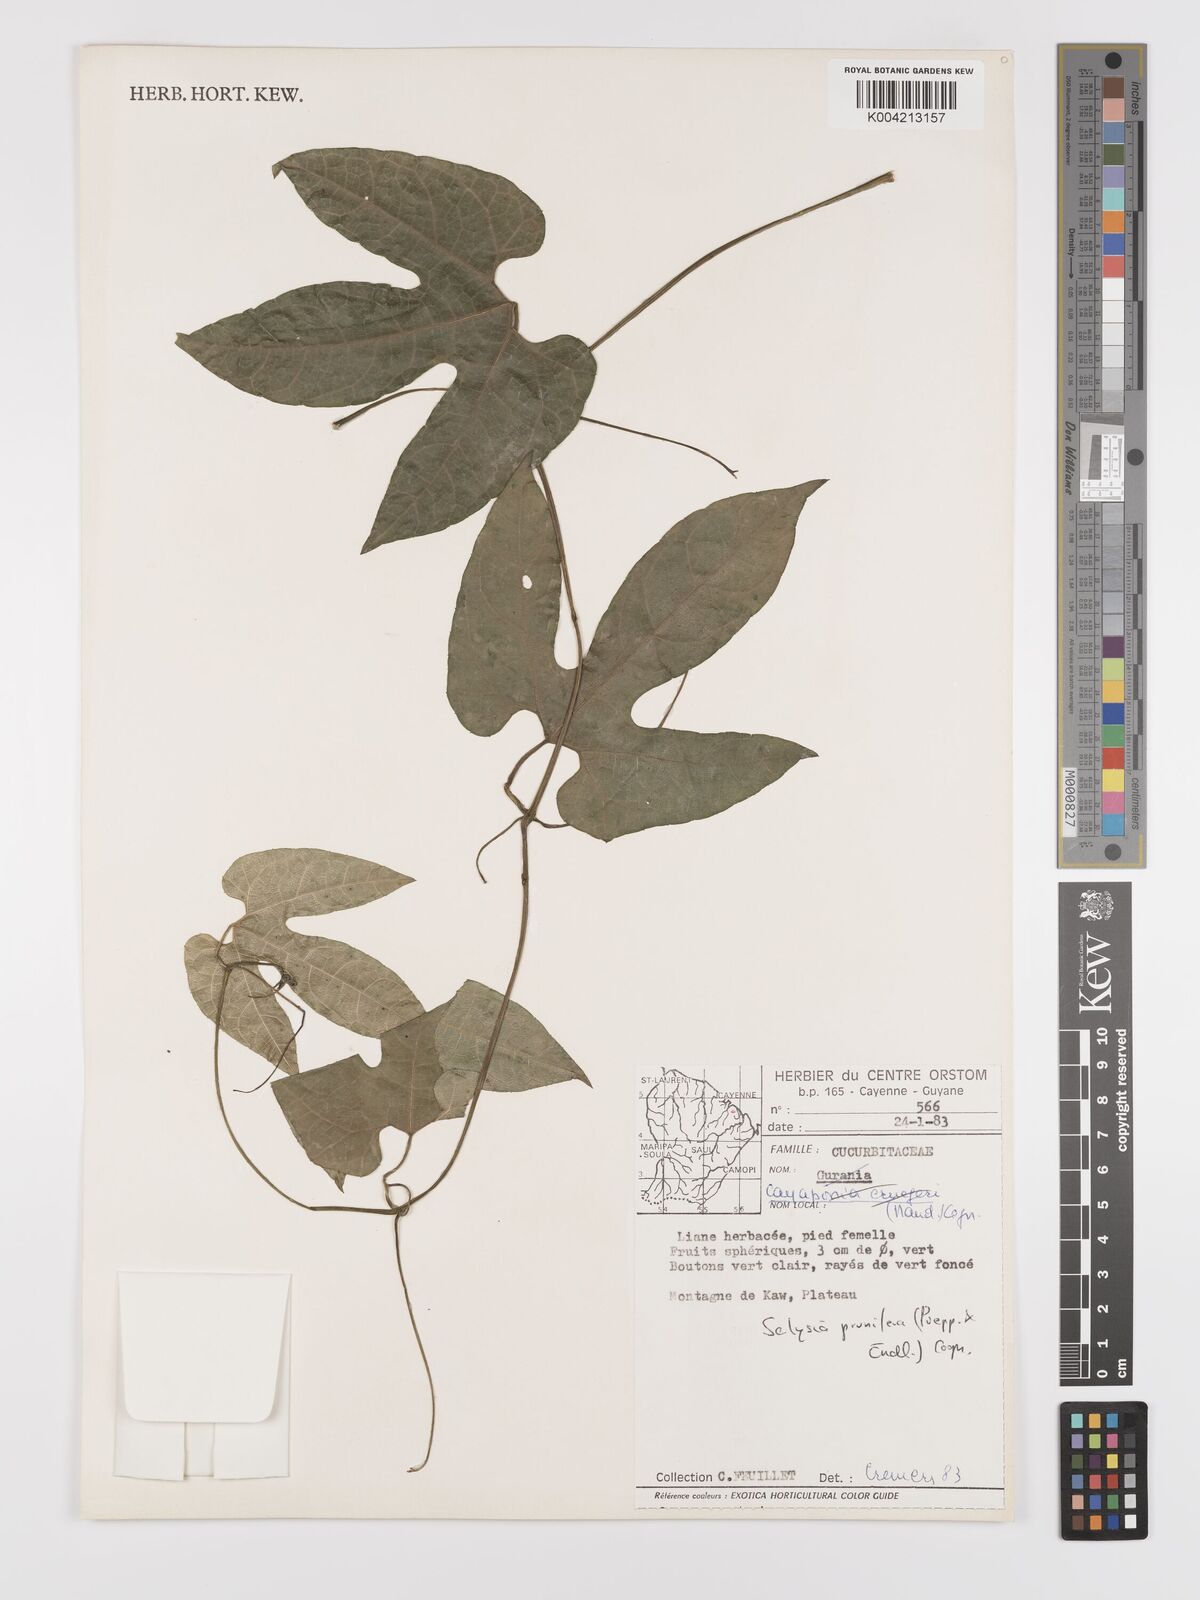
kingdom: Plantae
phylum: Tracheophyta
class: Magnoliopsida
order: Cucurbitales
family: Cucurbitaceae
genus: Cayaponia
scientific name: Cayaponia prunifera
